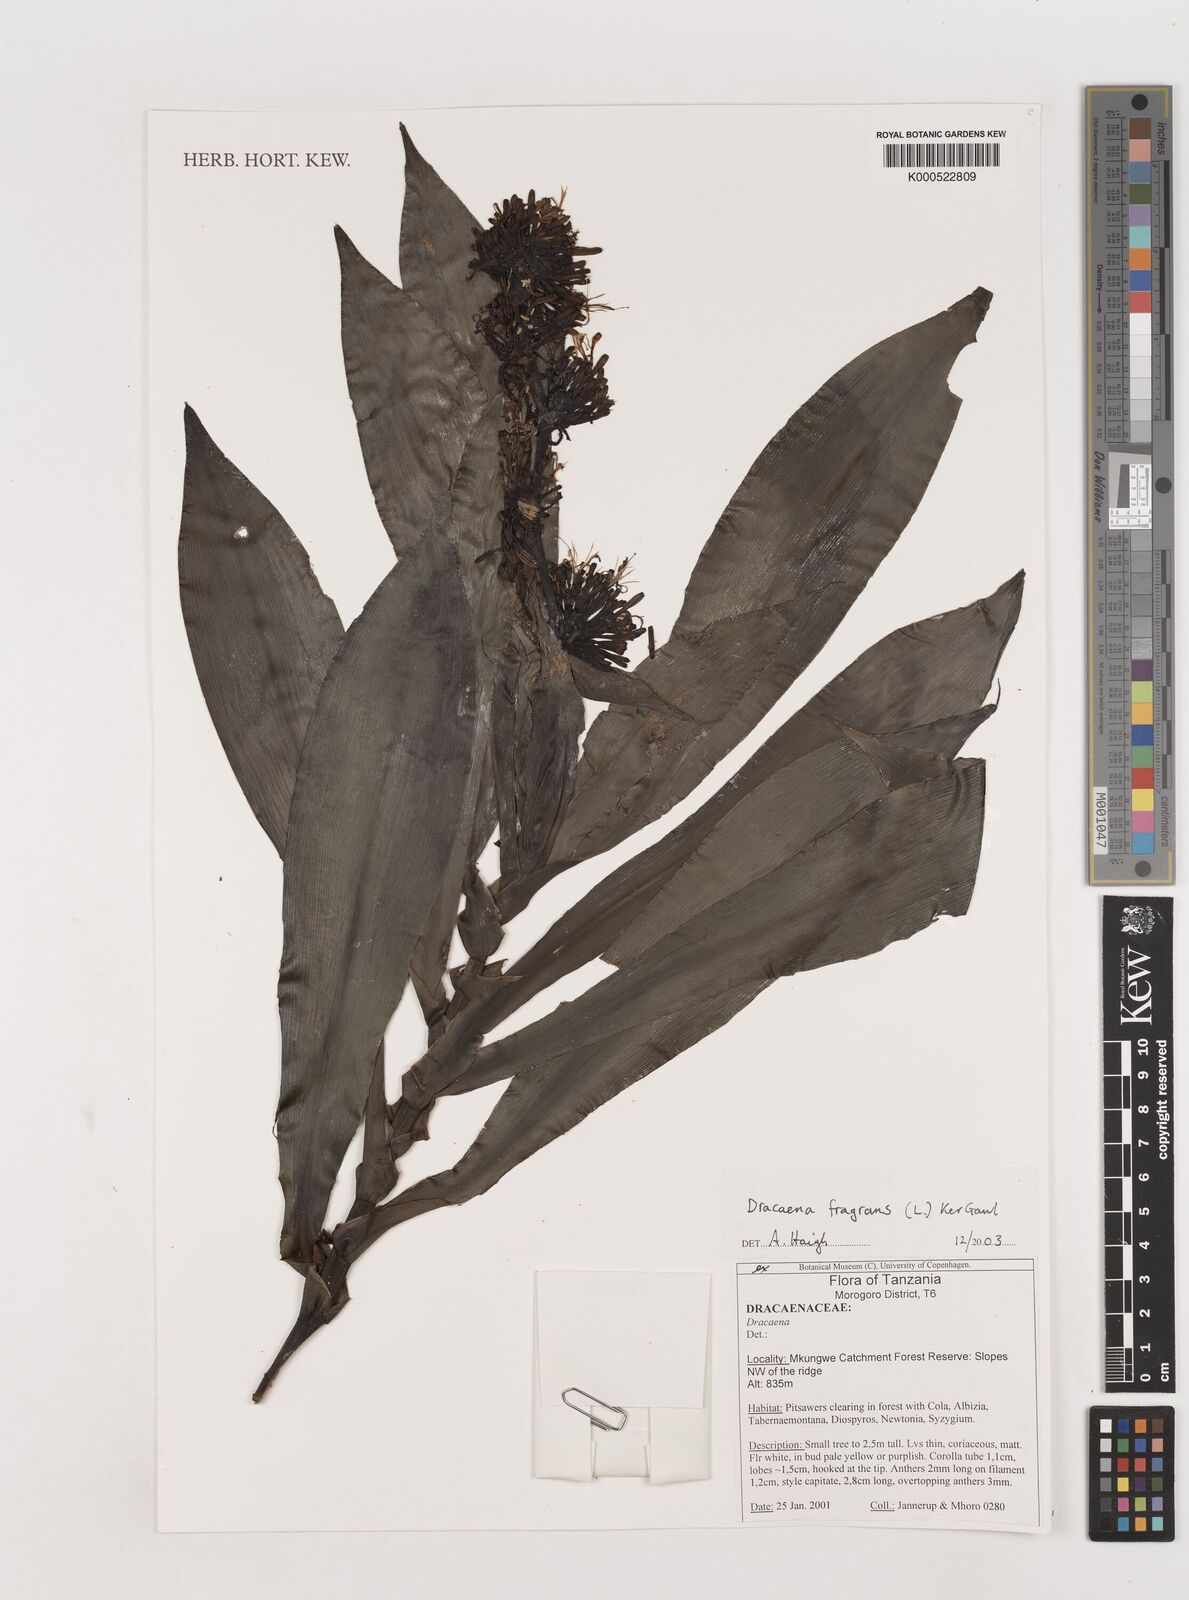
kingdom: Plantae
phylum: Tracheophyta
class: Liliopsida
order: Asparagales
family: Asparagaceae
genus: Dracaena
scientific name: Dracaena fragrans
